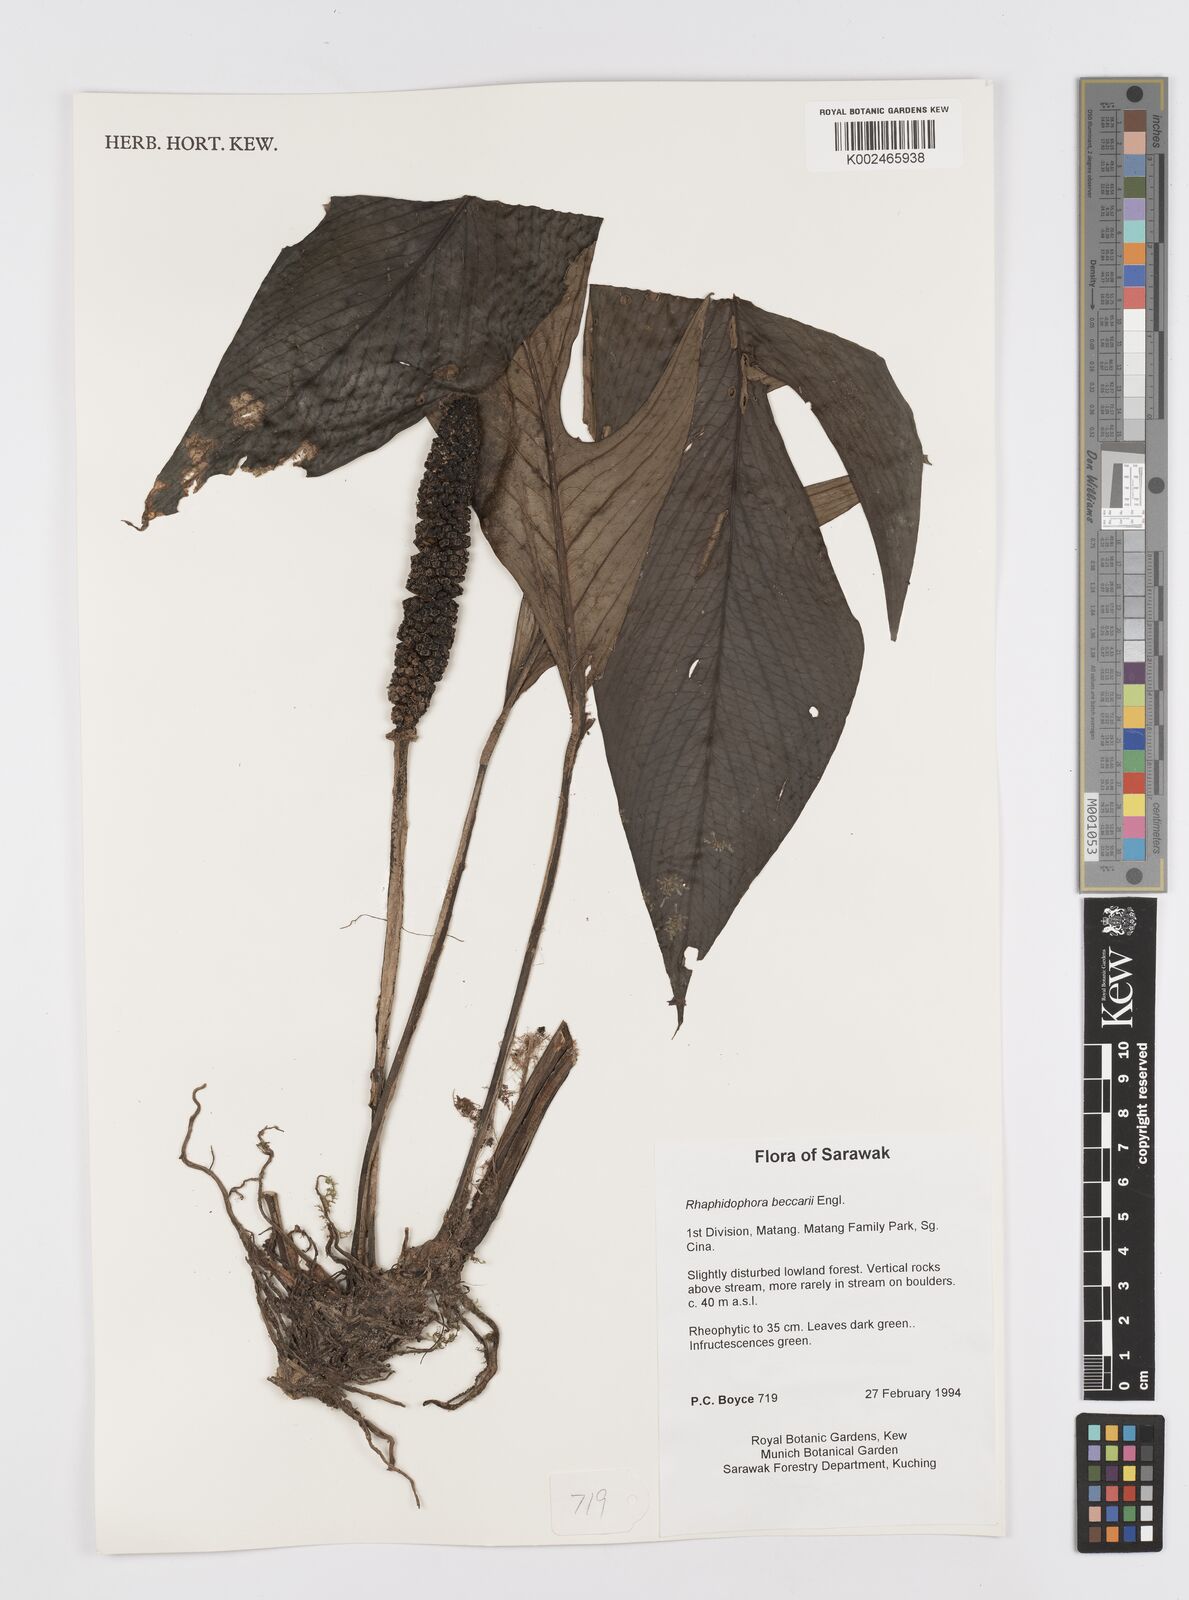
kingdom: Plantae
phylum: Tracheophyta
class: Liliopsida
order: Alismatales
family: Araceae
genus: Rhaphidophora
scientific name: Rhaphidophora beccarii
